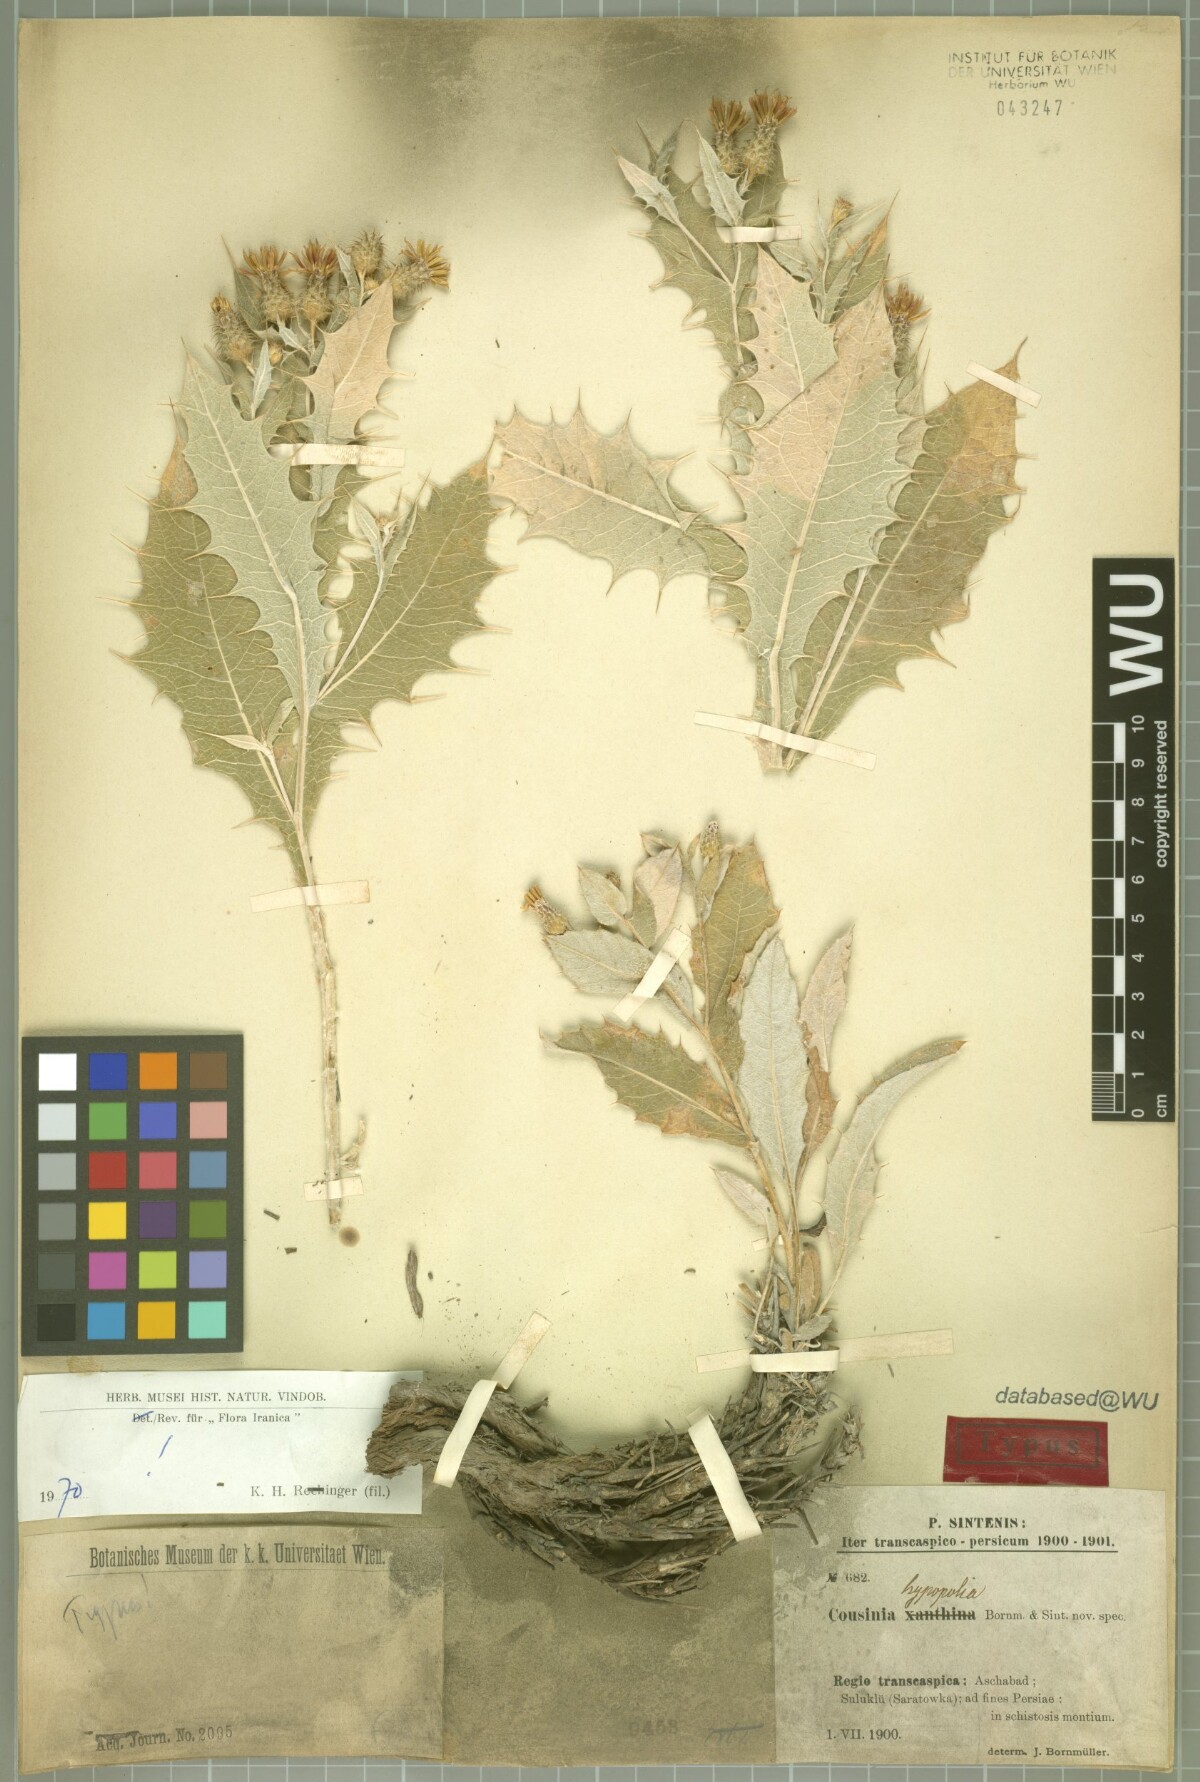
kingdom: Plantae
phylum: Tracheophyta
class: Magnoliopsida
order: Asterales
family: Asteraceae
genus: Cousinia
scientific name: Cousinia hypopolia
